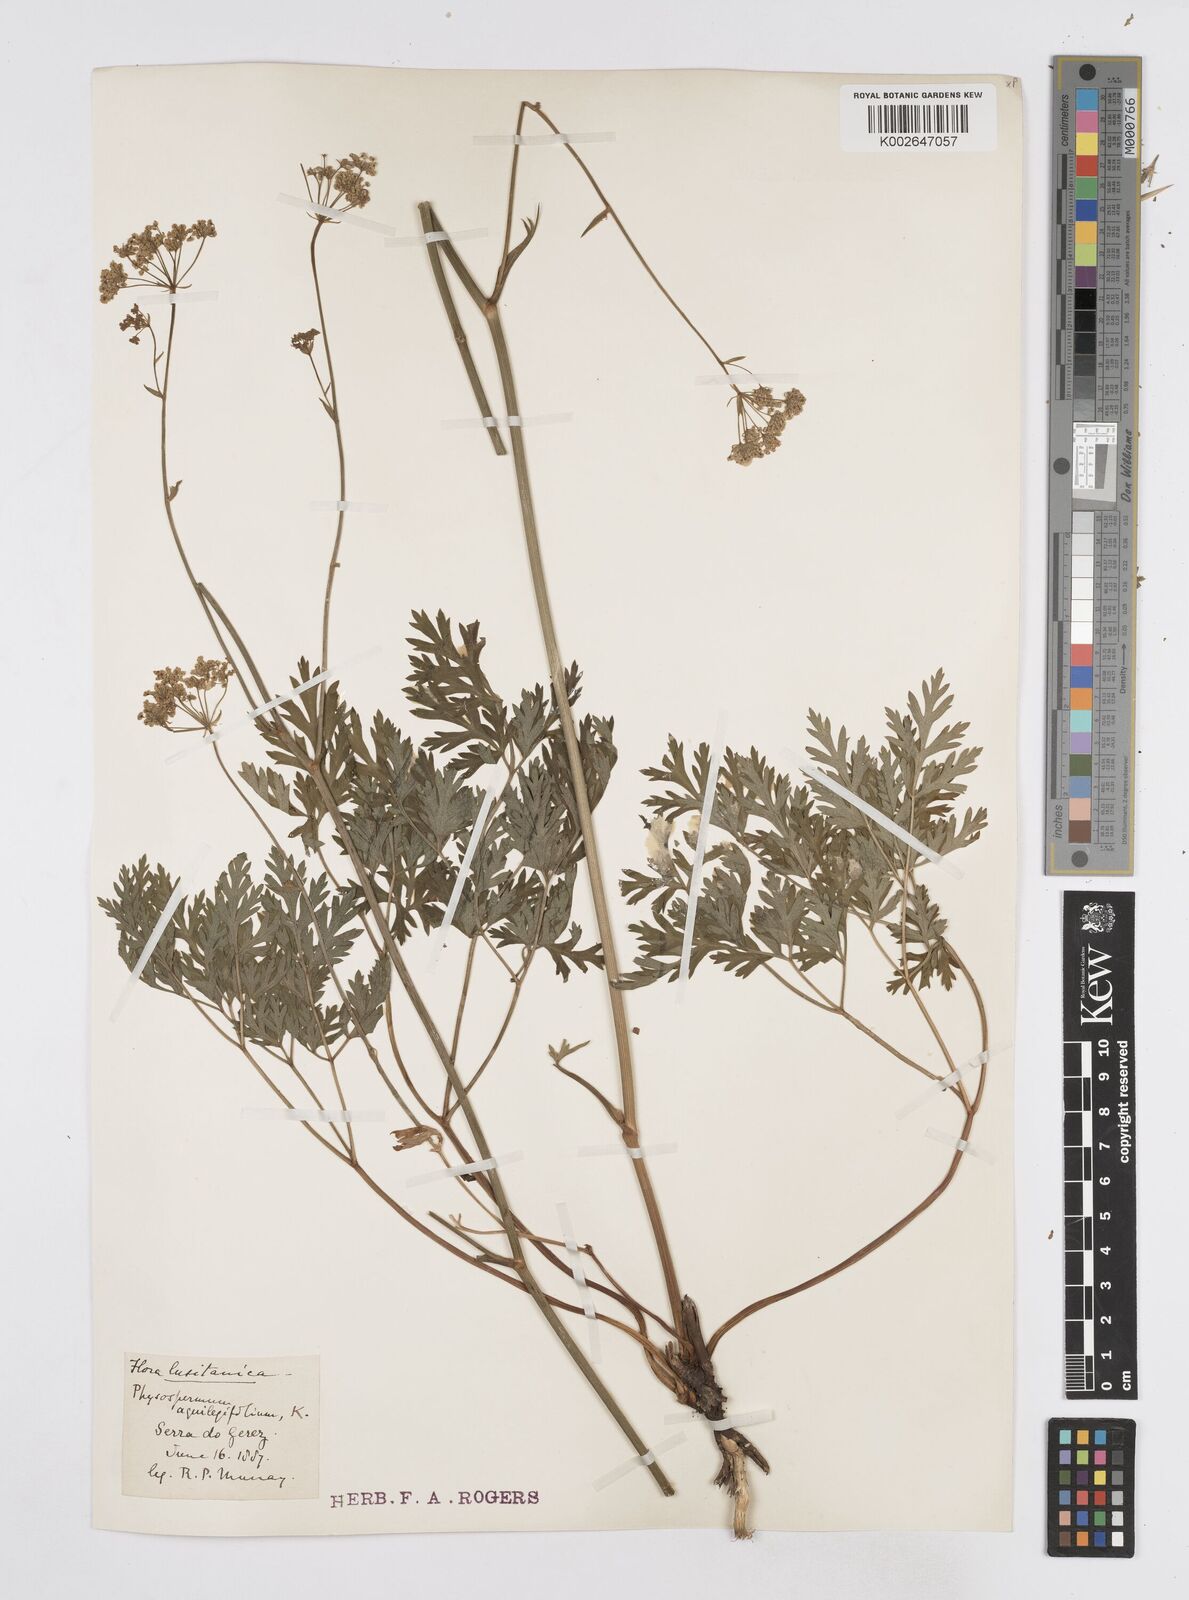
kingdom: Plantae
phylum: Tracheophyta
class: Magnoliopsida
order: Apiales
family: Apiaceae
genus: Physospermum
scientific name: Physospermum cornubiense
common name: Bladderseed
